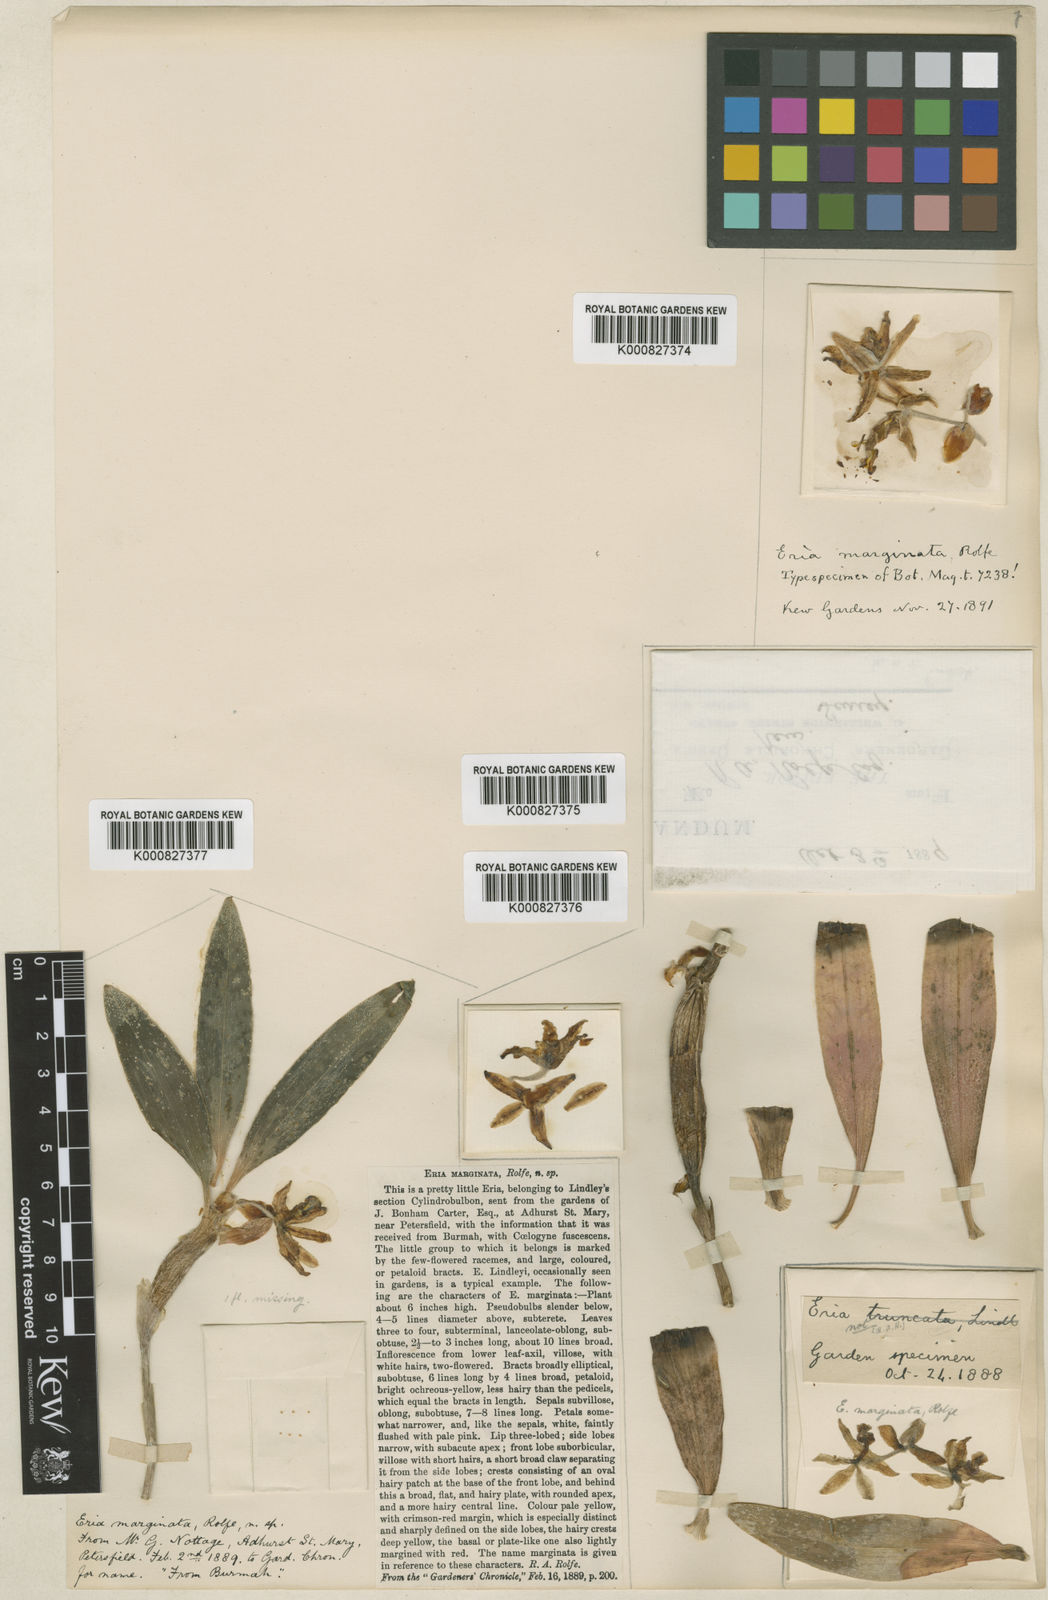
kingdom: Plantae
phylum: Tracheophyta
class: Liliopsida
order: Asparagales
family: Orchidaceae
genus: Cylindrolobus
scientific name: Cylindrolobus marginatus
